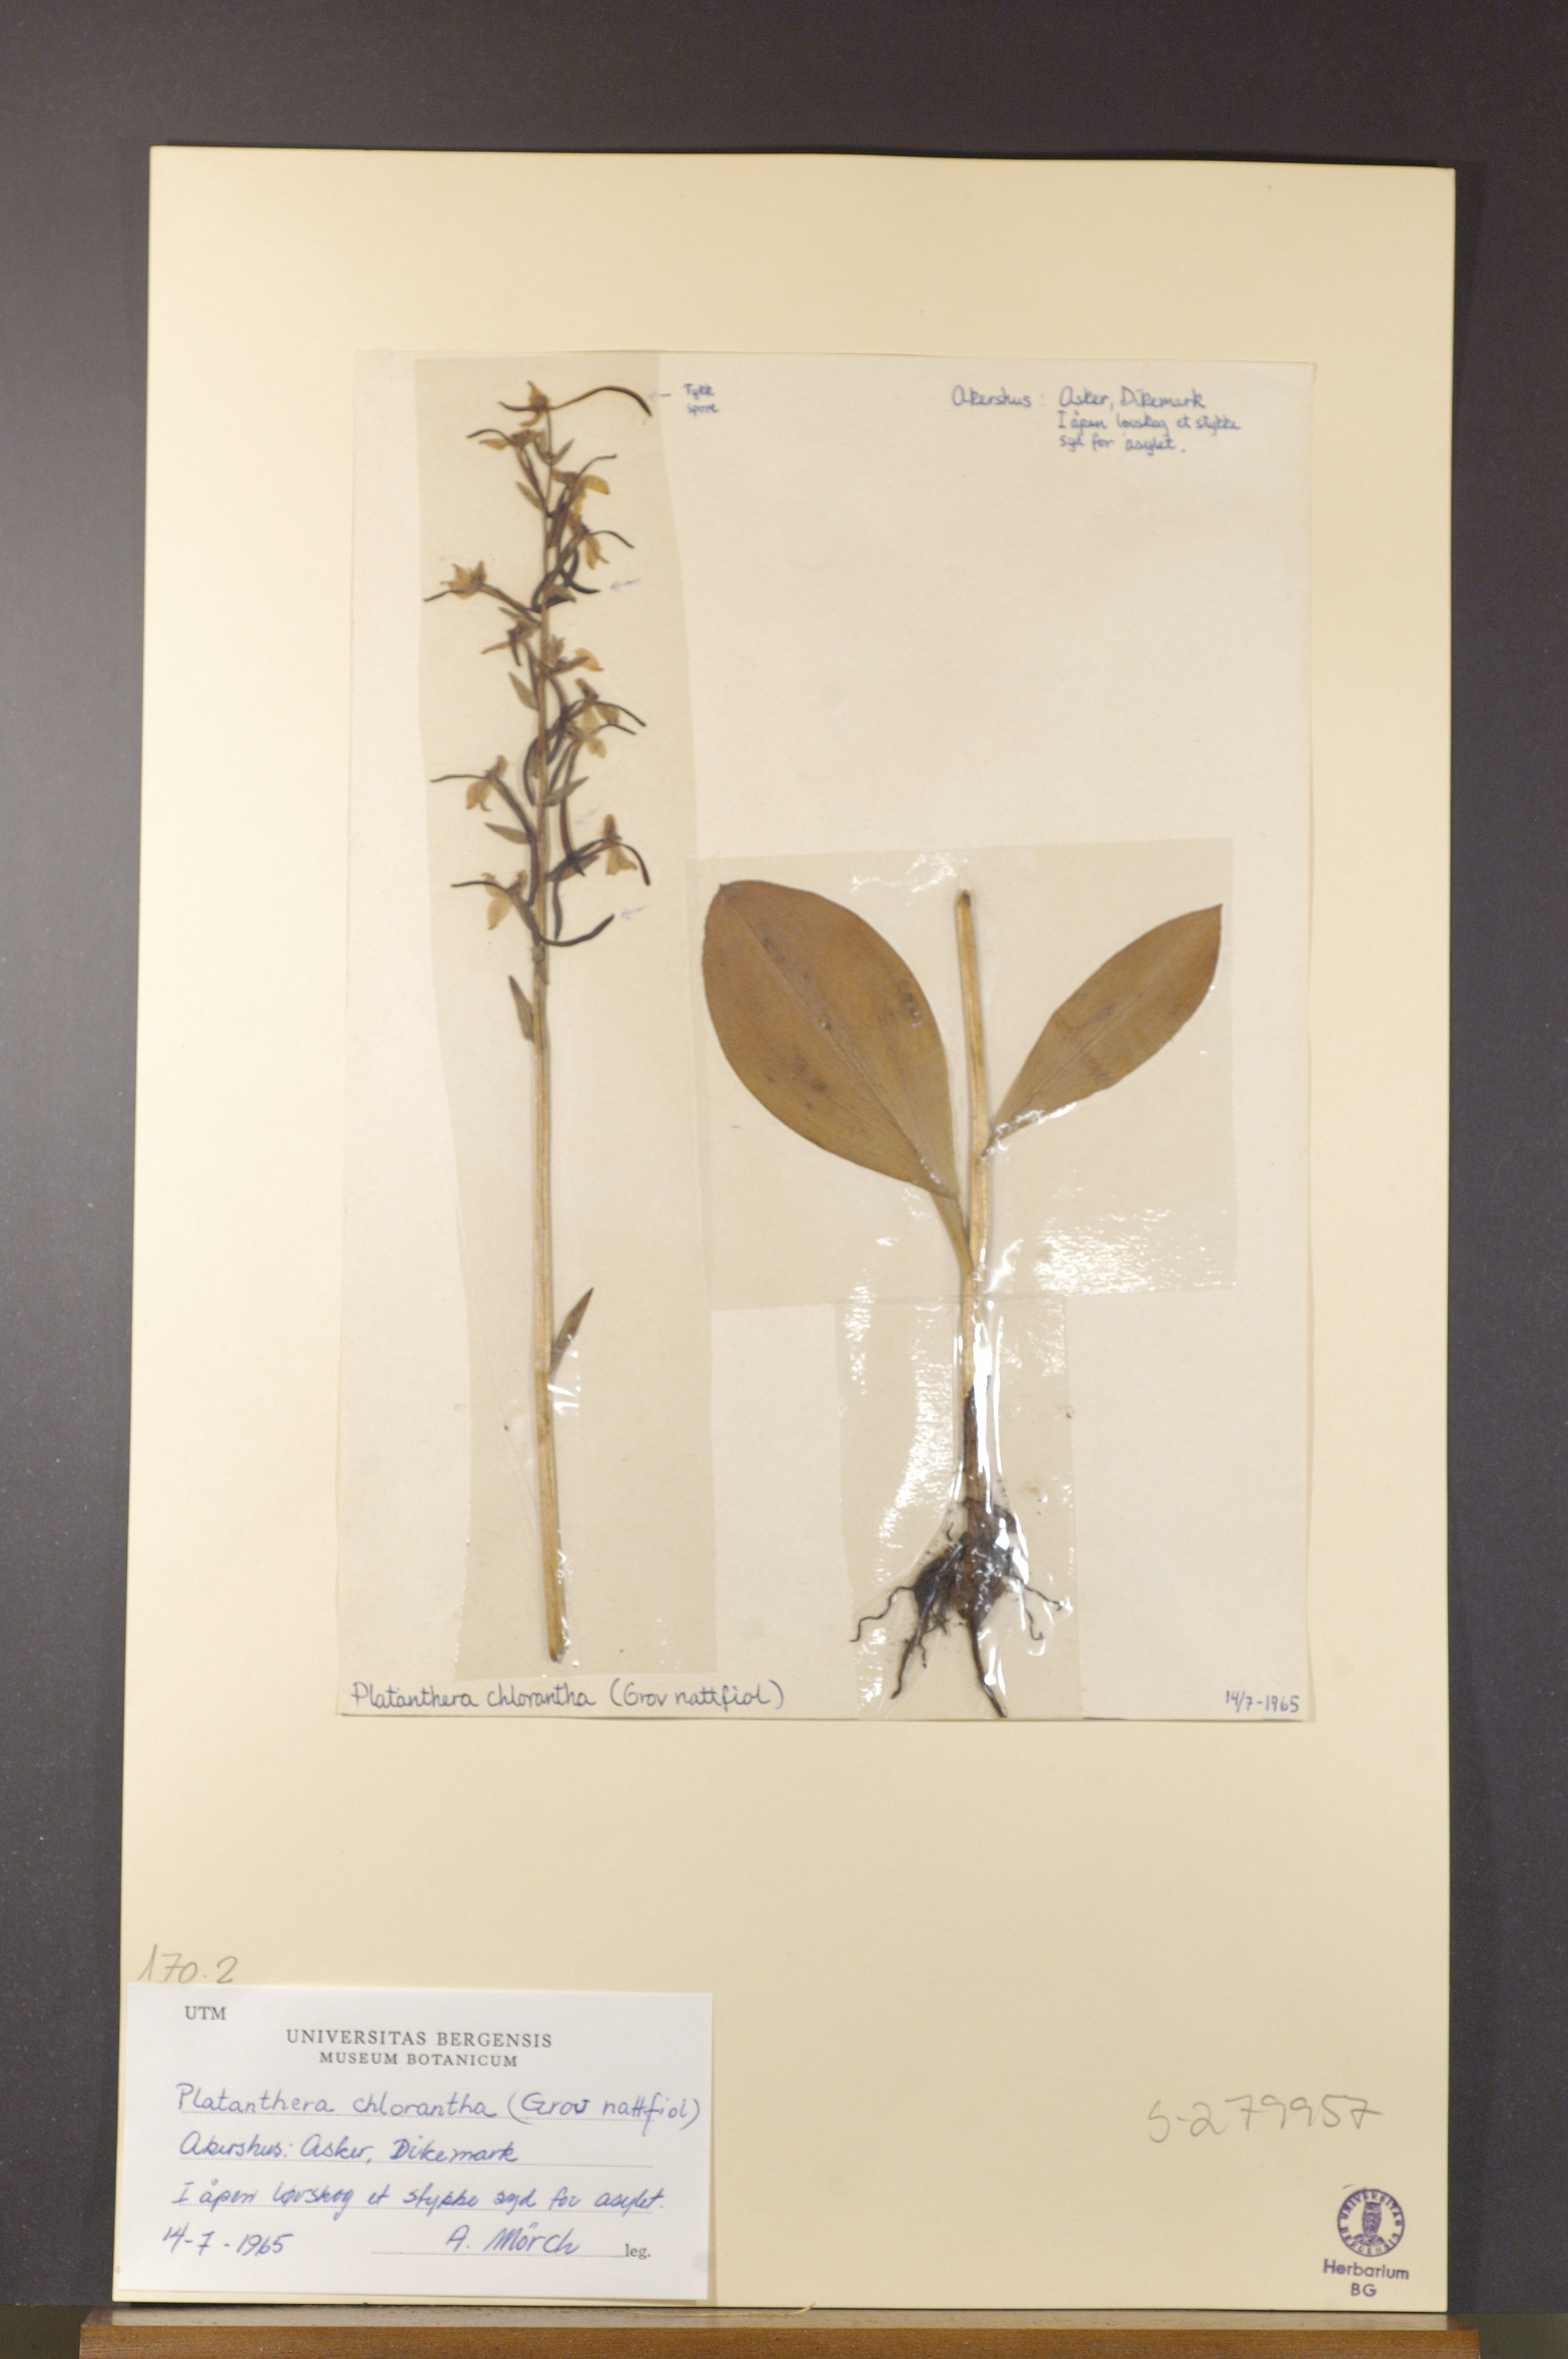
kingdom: Plantae
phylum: Tracheophyta
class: Liliopsida
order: Asparagales
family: Orchidaceae
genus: Platanthera
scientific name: Platanthera chlorantha
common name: Greater butterfly-orchid
